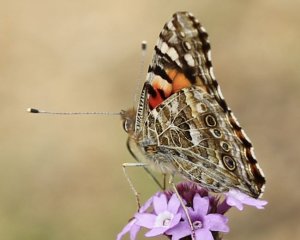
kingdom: Animalia
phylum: Arthropoda
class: Insecta
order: Lepidoptera
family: Nymphalidae
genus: Vanessa
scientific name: Vanessa cardui
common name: Painted Lady
